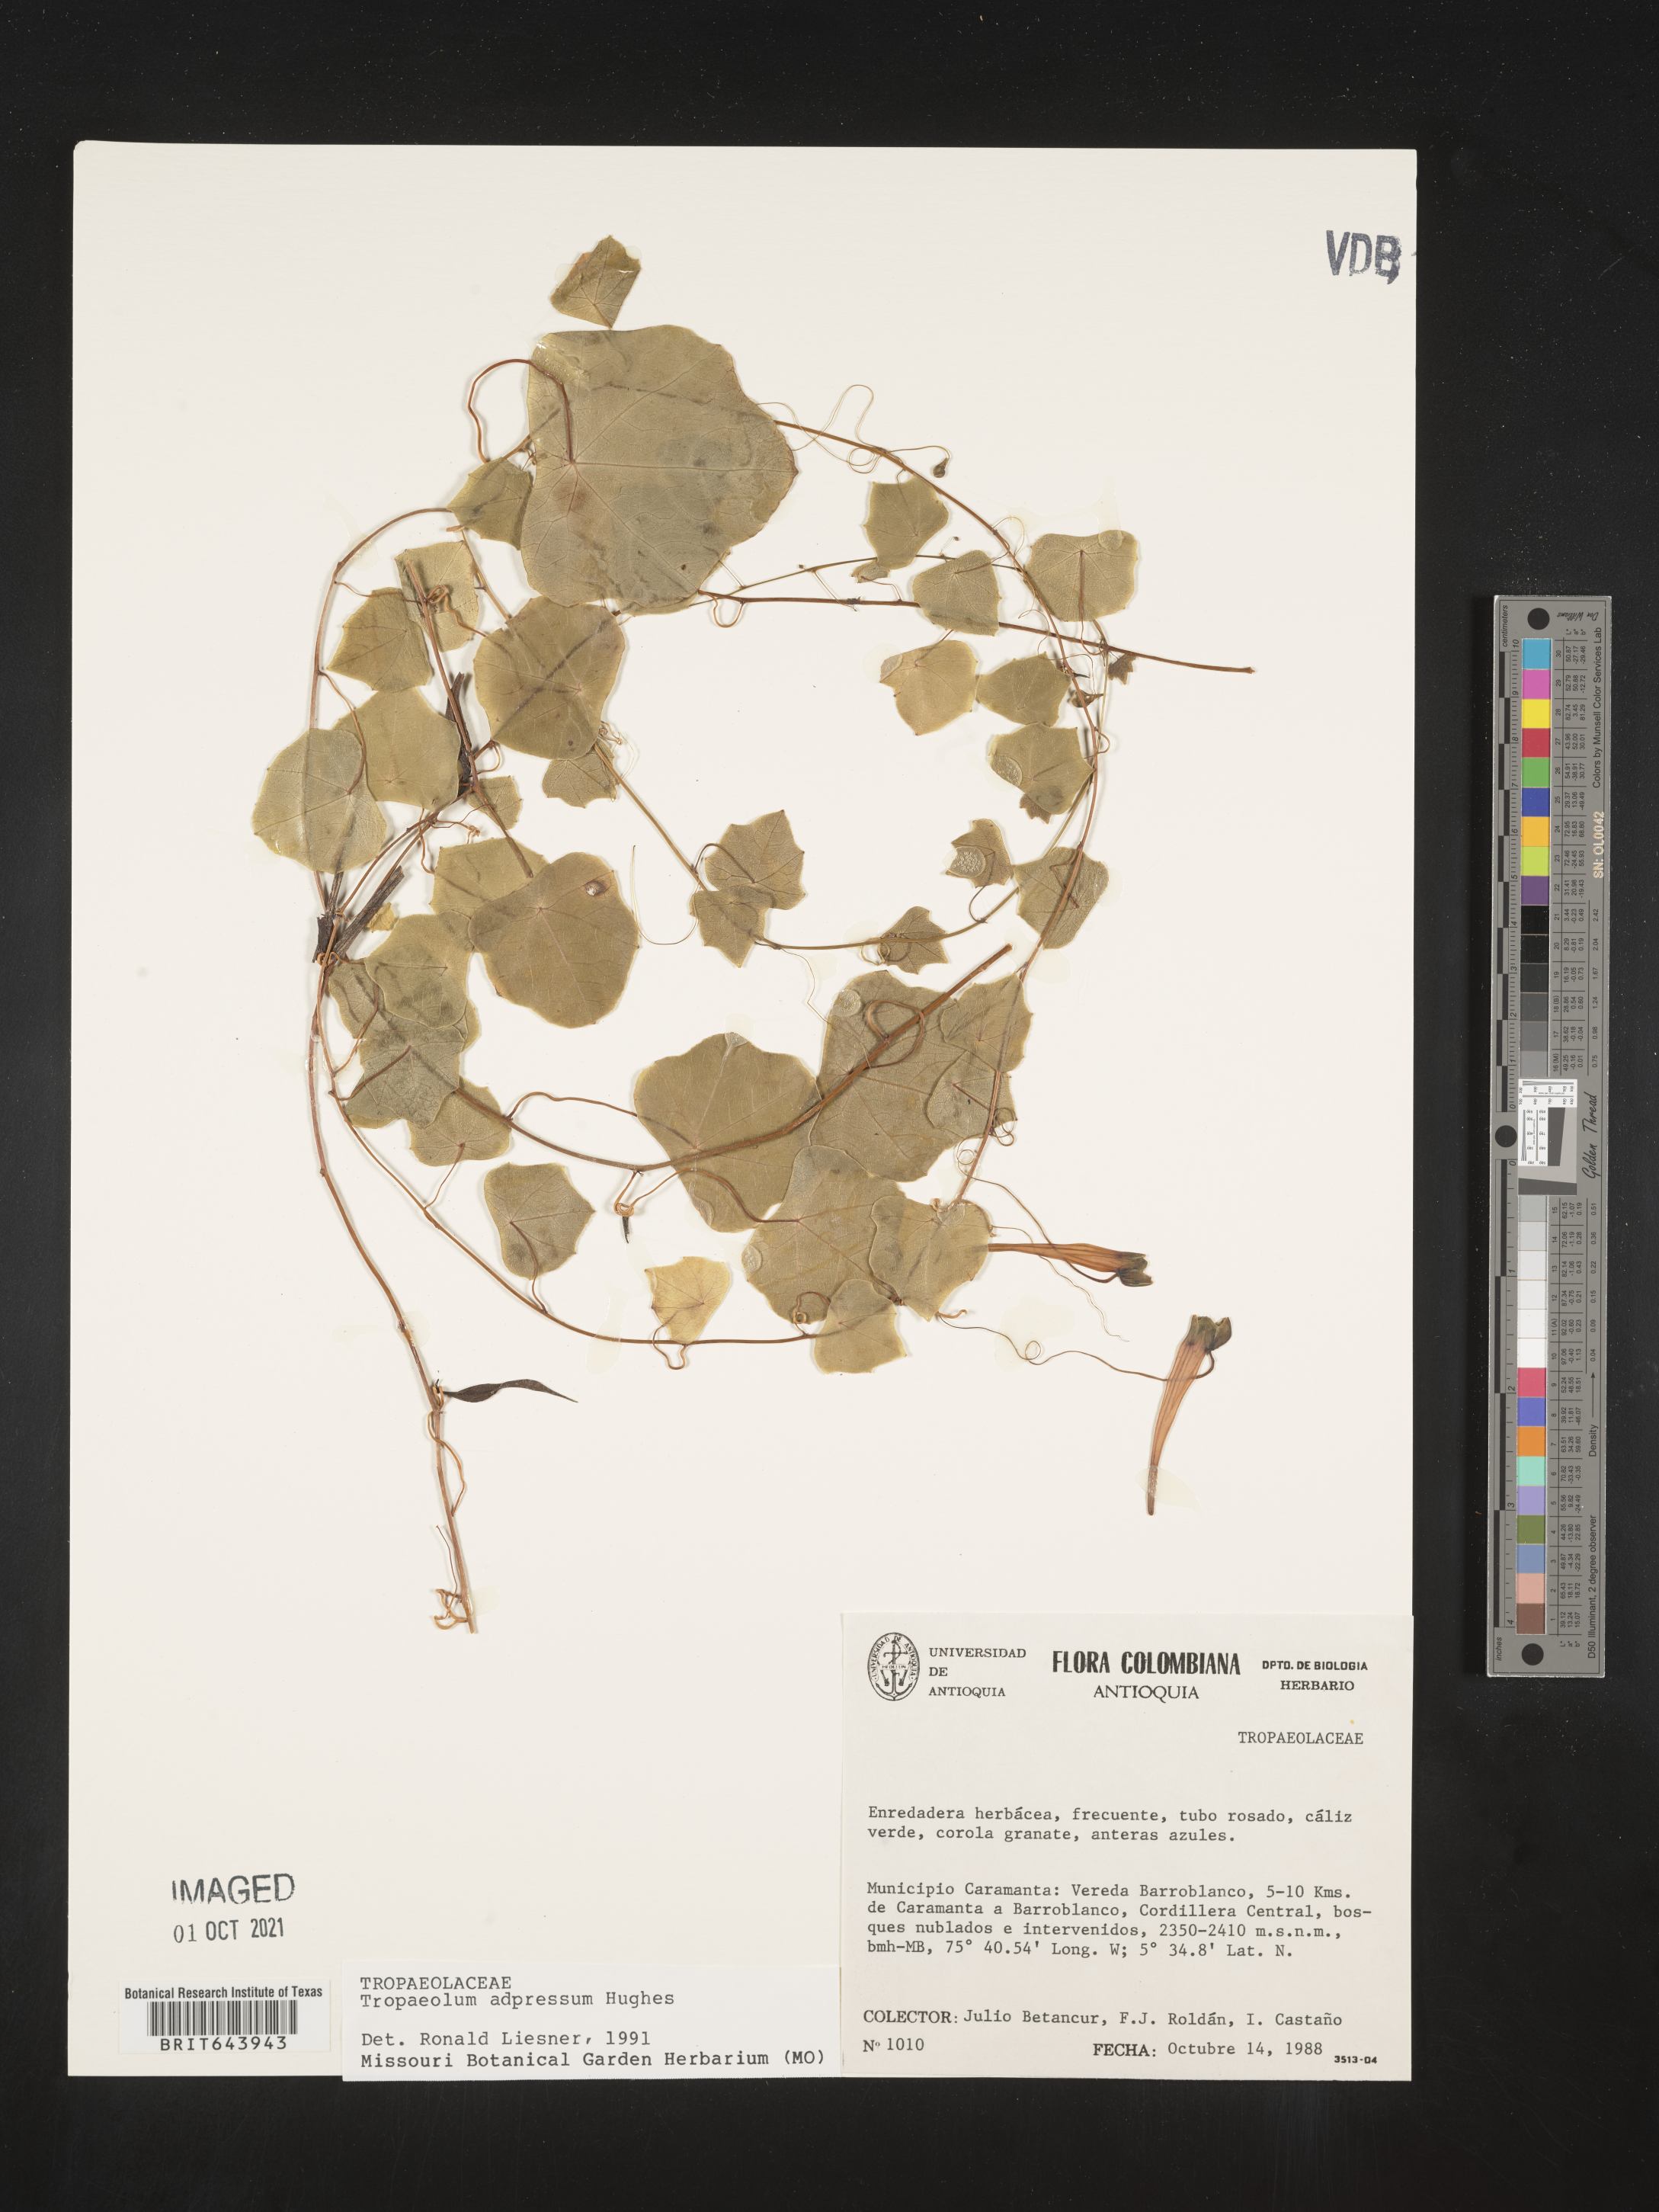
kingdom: Plantae
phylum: Tracheophyta
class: Magnoliopsida
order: Brassicales
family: Tropaeolaceae
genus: Tropaeolum
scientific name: Tropaeolum
